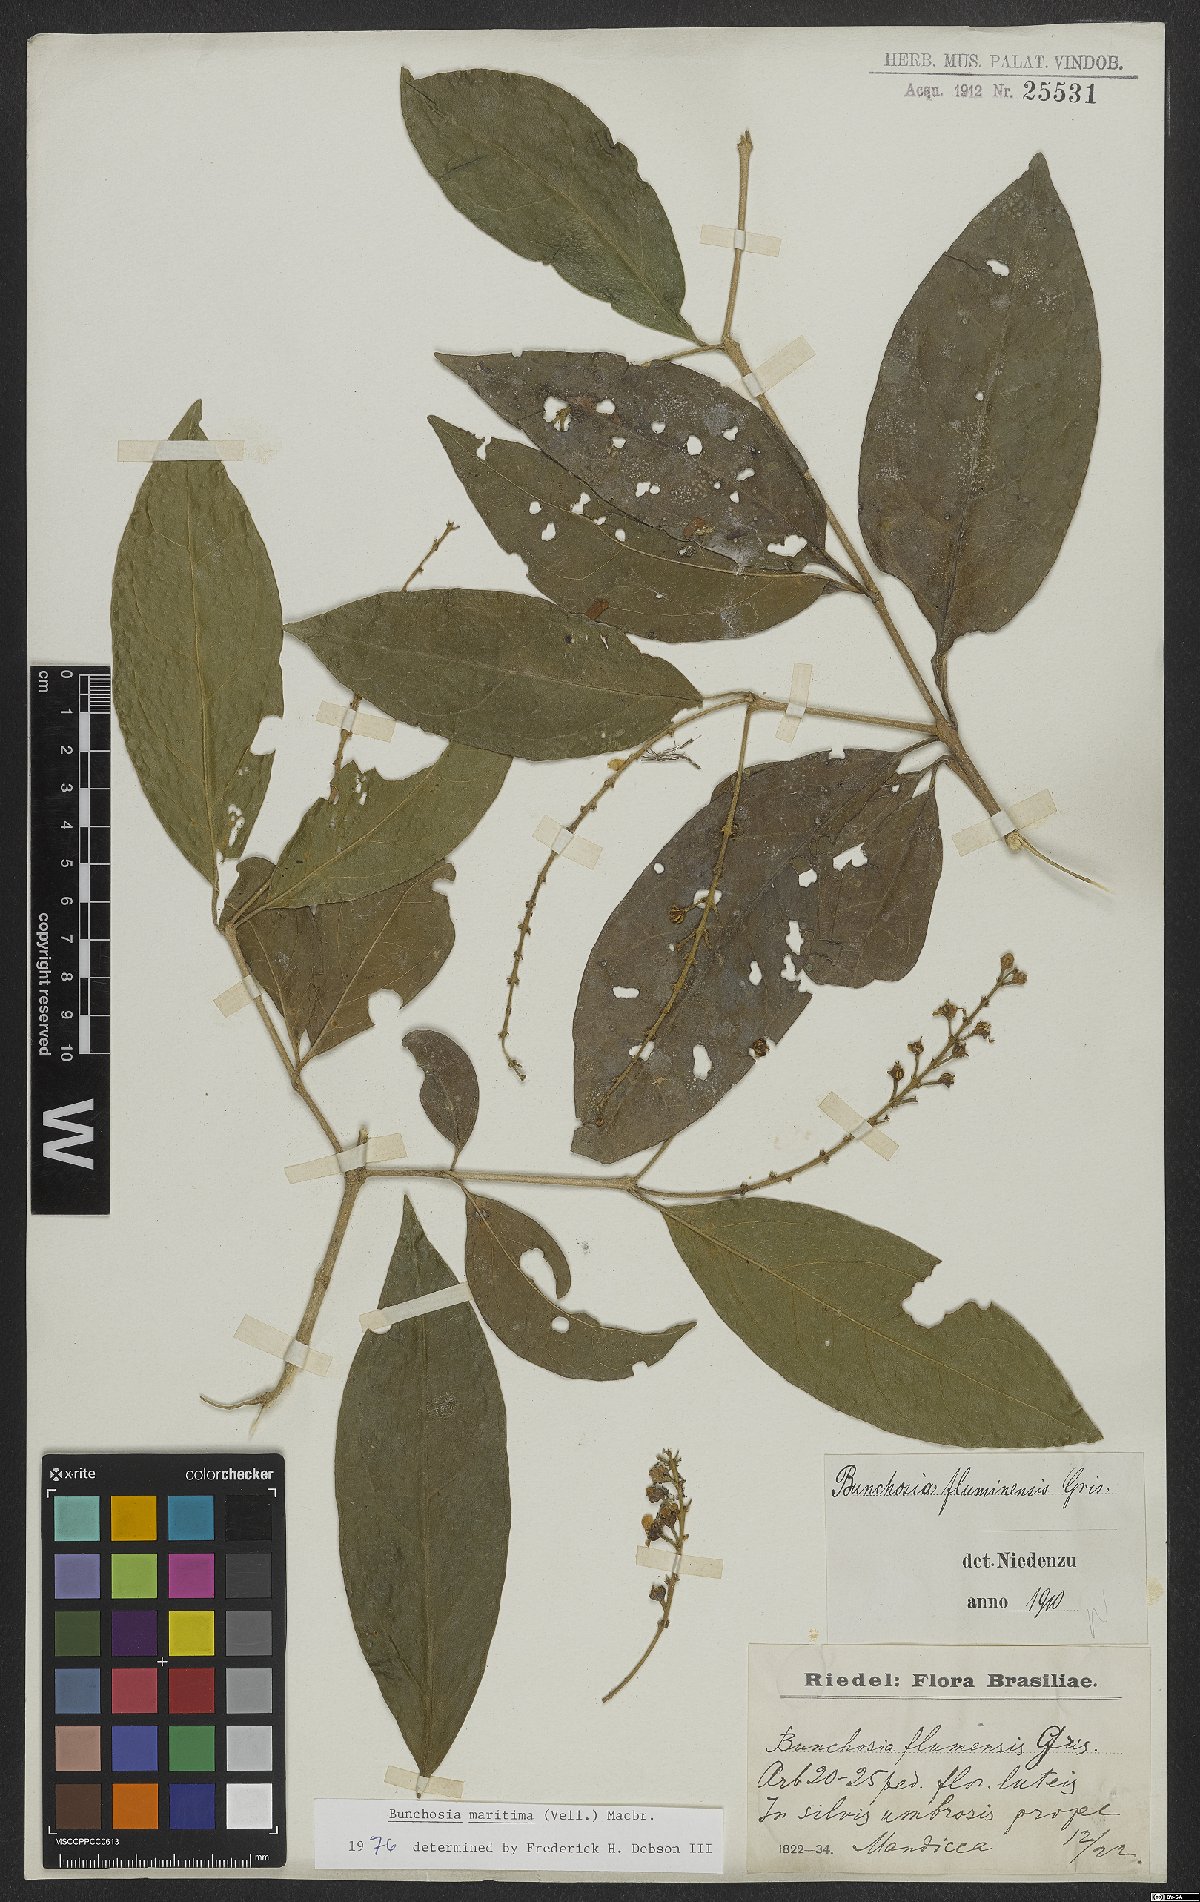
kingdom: Plantae
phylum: Tracheophyta
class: Magnoliopsida
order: Malpighiales
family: Malpighiaceae
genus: Bunchosia
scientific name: Bunchosia maritima
